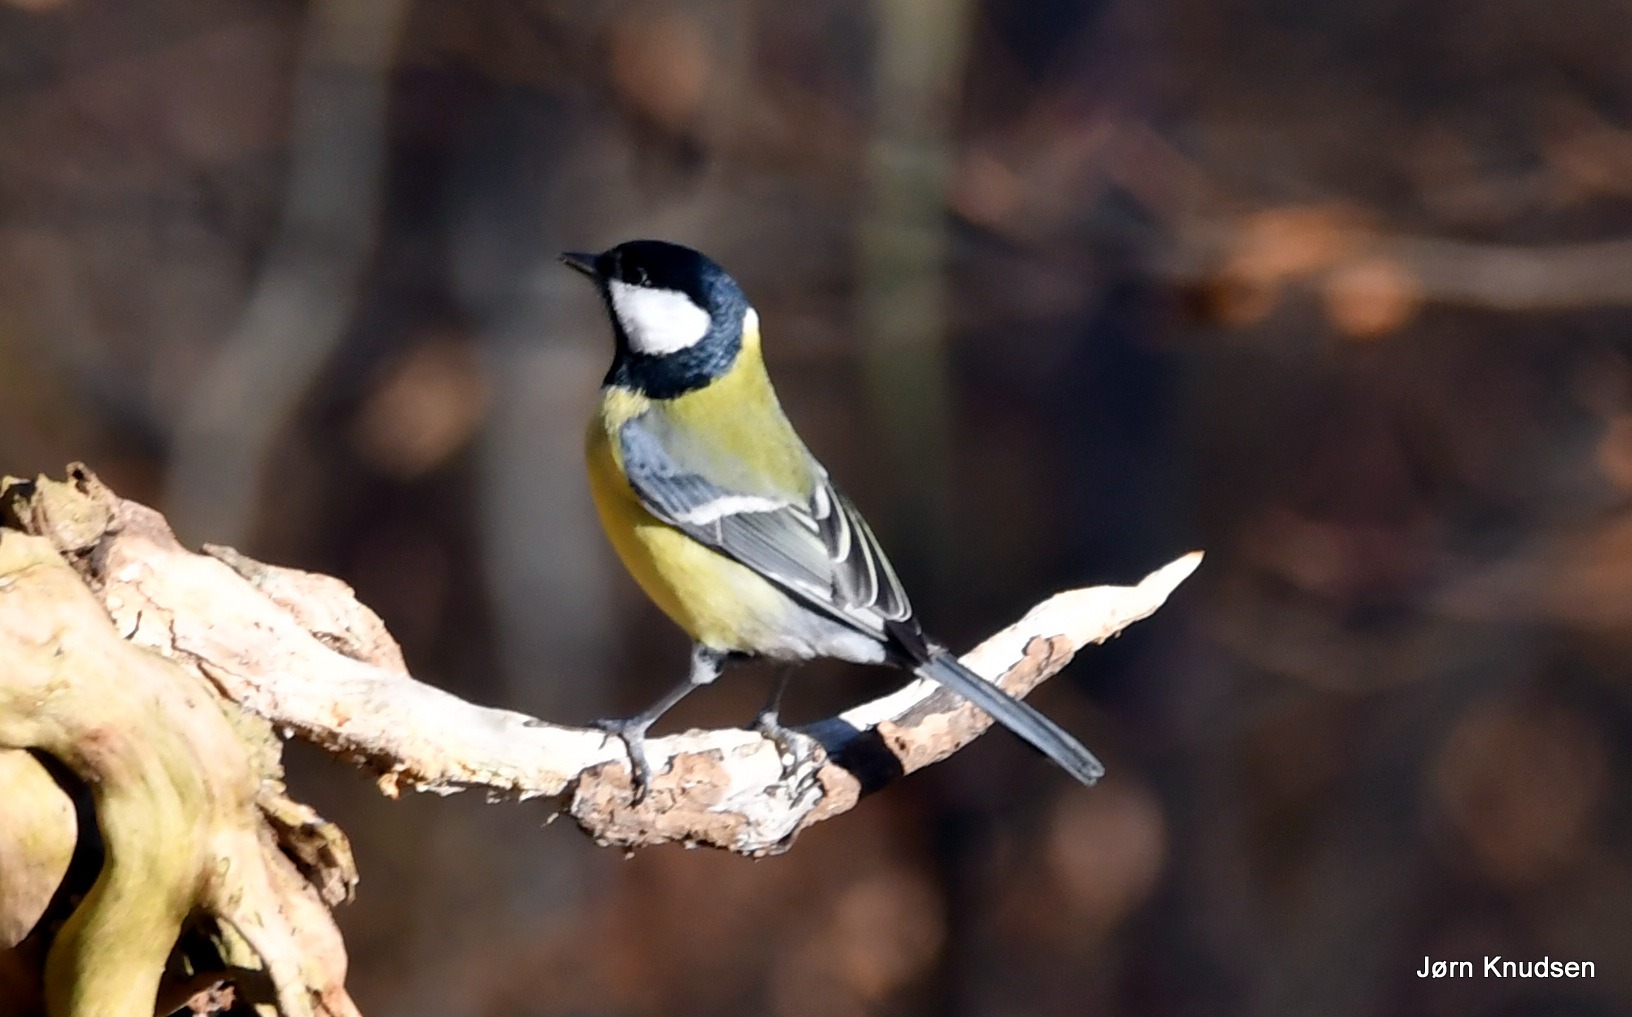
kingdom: Animalia
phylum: Chordata
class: Aves
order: Passeriformes
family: Paridae
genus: Parus
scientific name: Parus major
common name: Musvit
